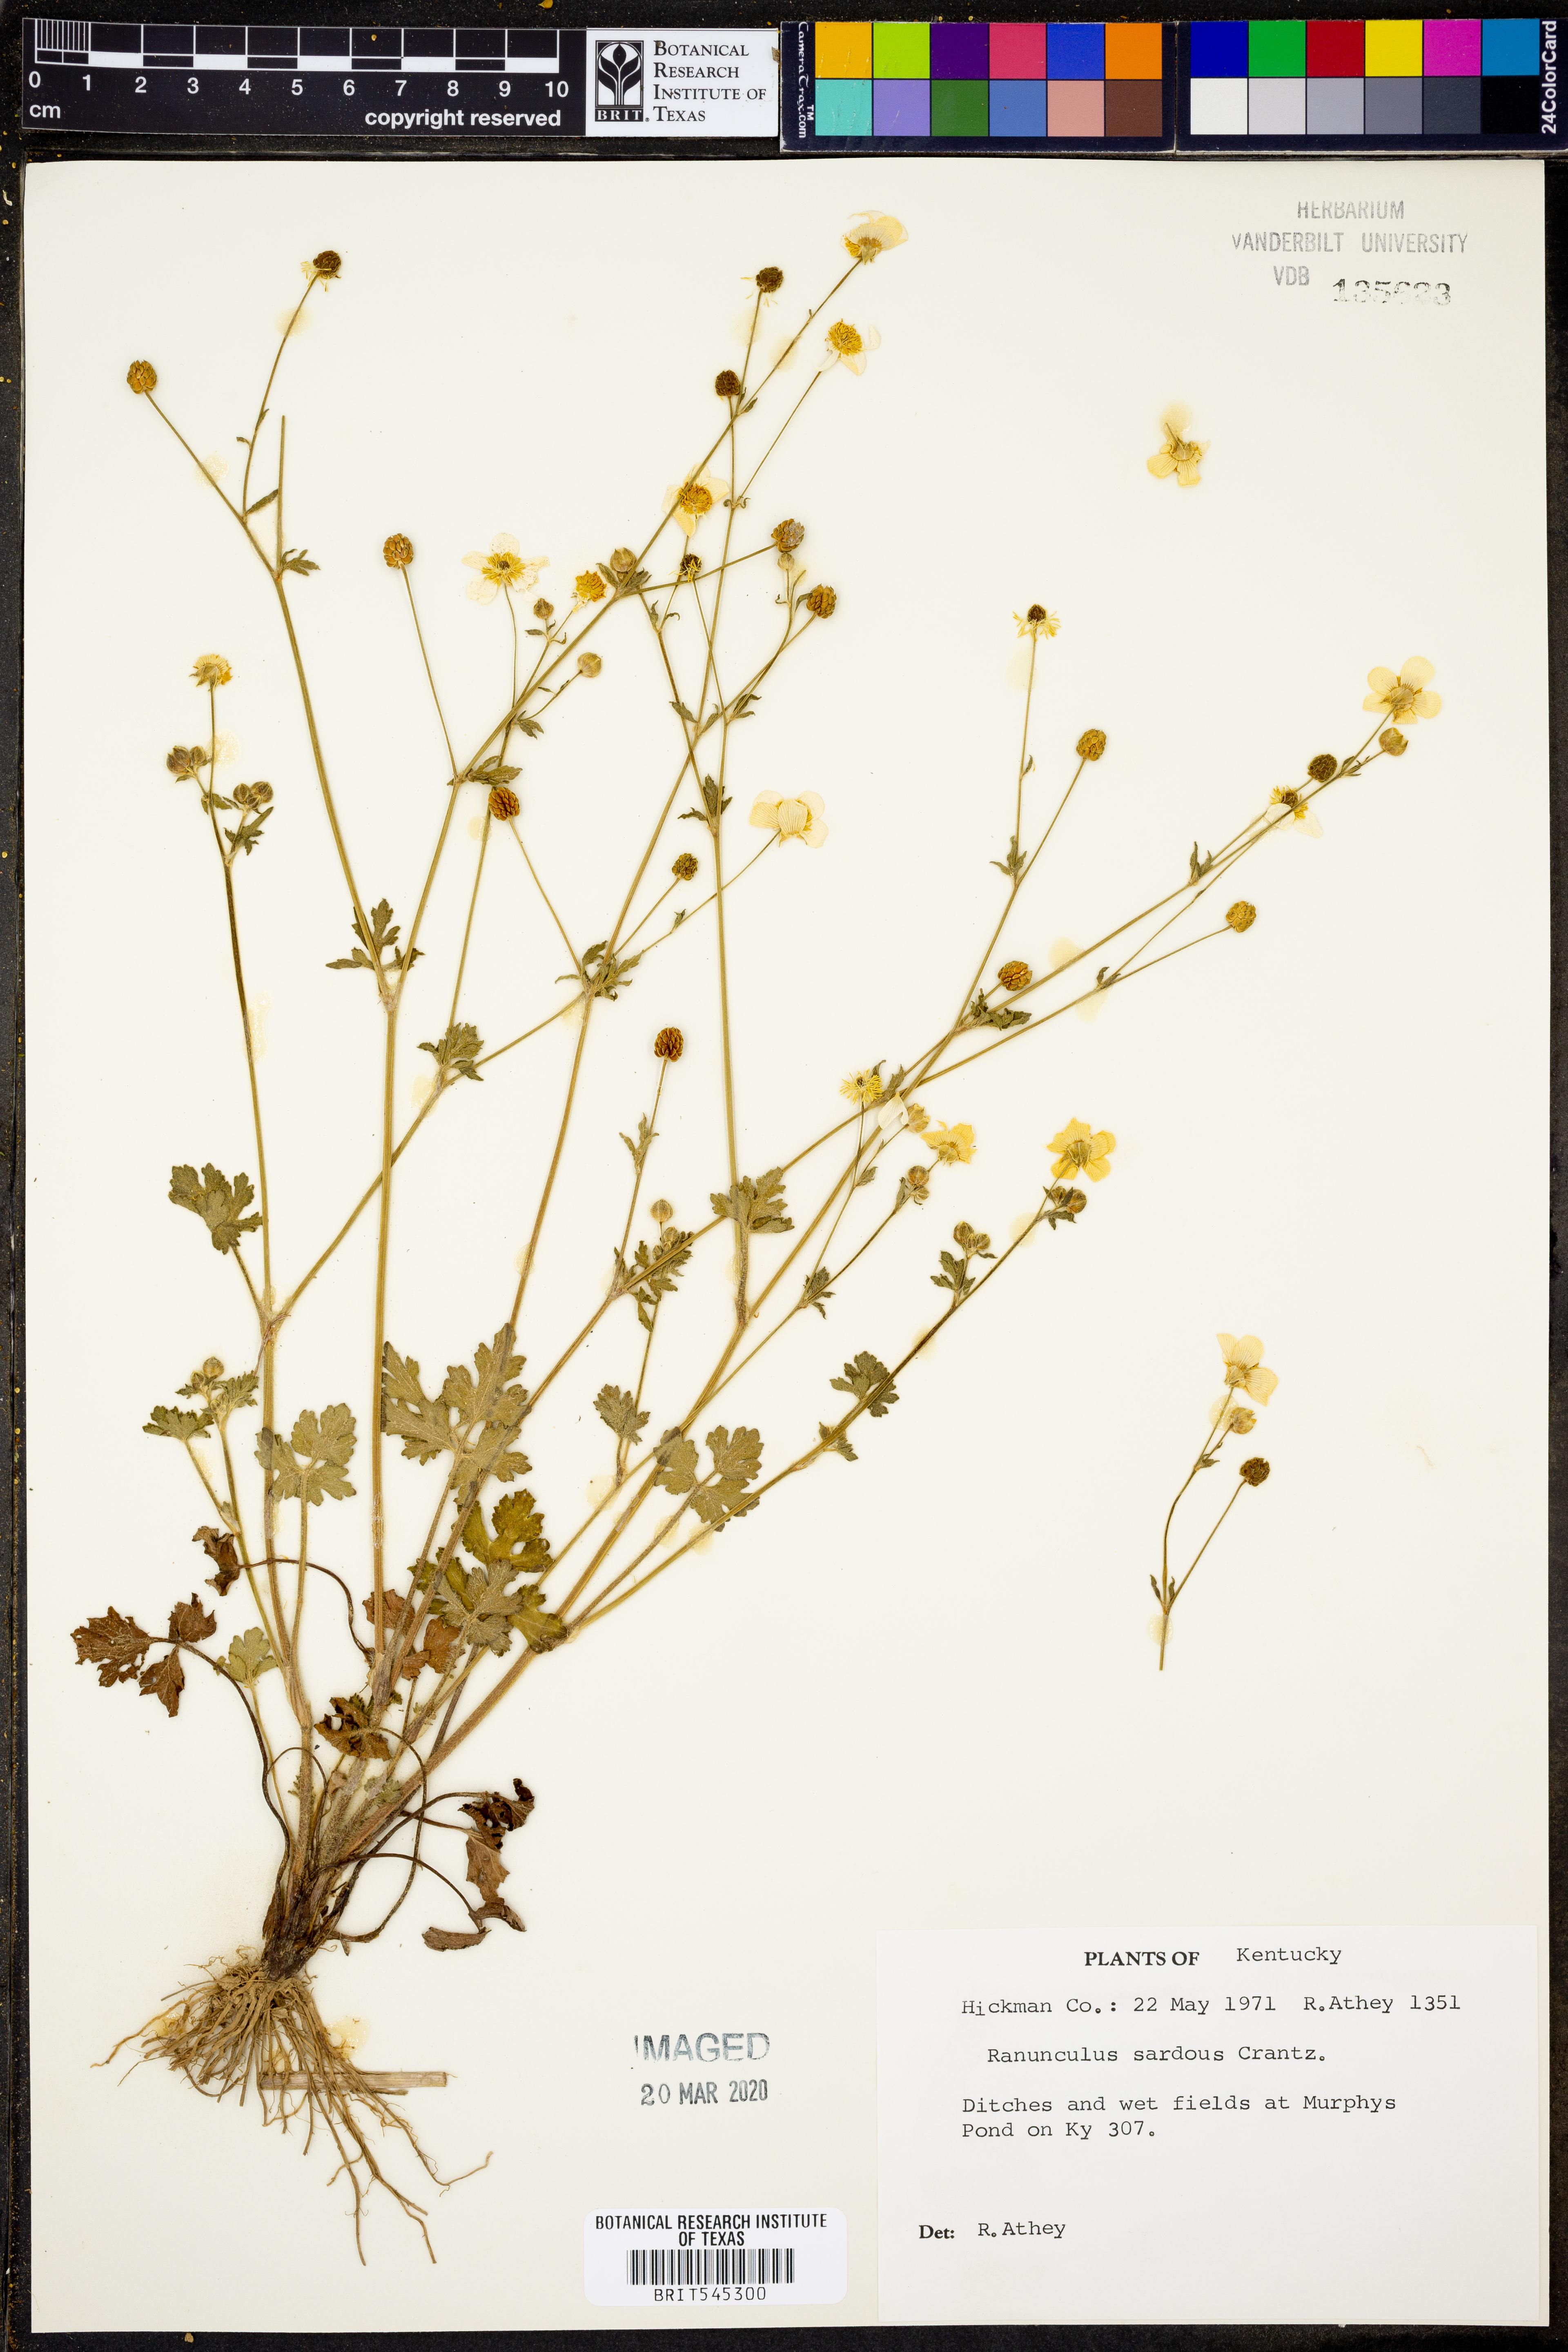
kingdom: Plantae
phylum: Tracheophyta
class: Magnoliopsida
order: Ranunculales
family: Ranunculaceae
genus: Ranunculus
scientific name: Ranunculus sardous
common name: Hairy buttercup
